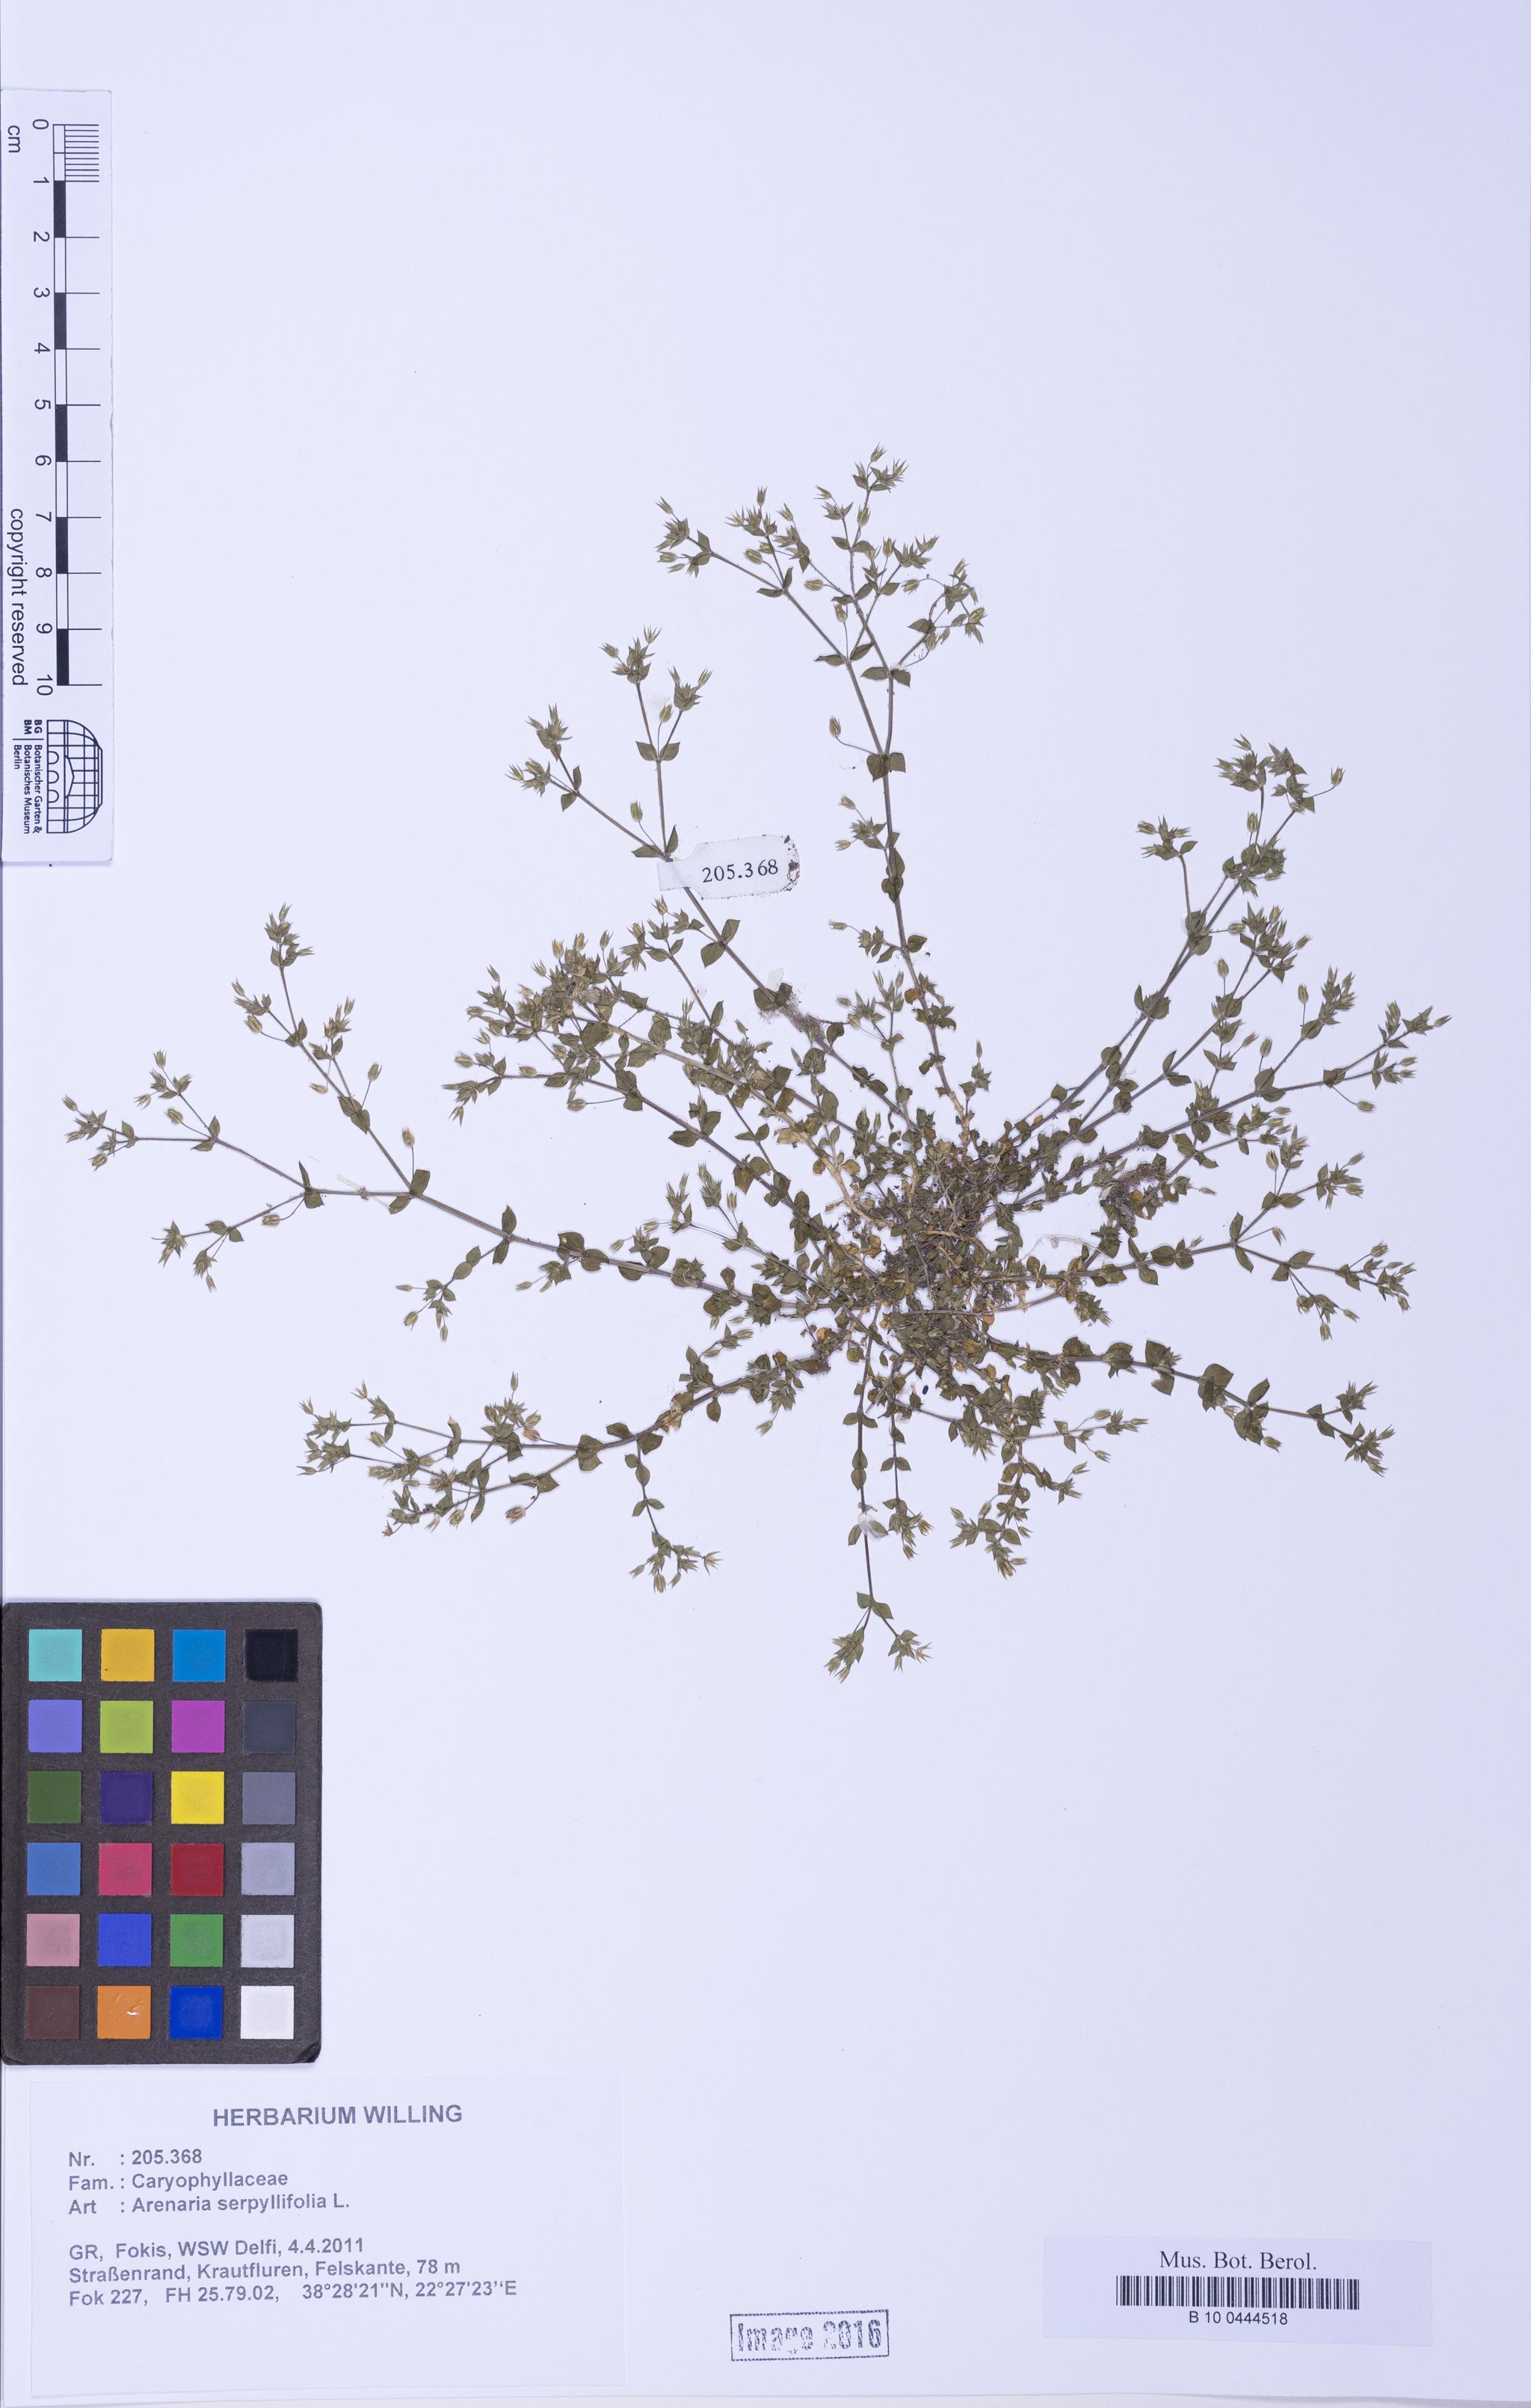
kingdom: Plantae
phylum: Tracheophyta
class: Magnoliopsida
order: Caryophyllales
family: Caryophyllaceae
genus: Arenaria
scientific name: Arenaria serpyllifolia
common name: Thyme-leaved sandwort
